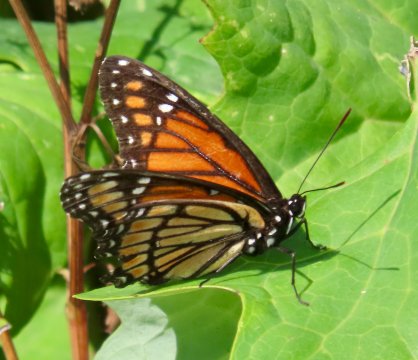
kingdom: Animalia
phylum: Arthropoda
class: Insecta
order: Lepidoptera
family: Nymphalidae
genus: Limenitis
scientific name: Limenitis archippus
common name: Viceroy
